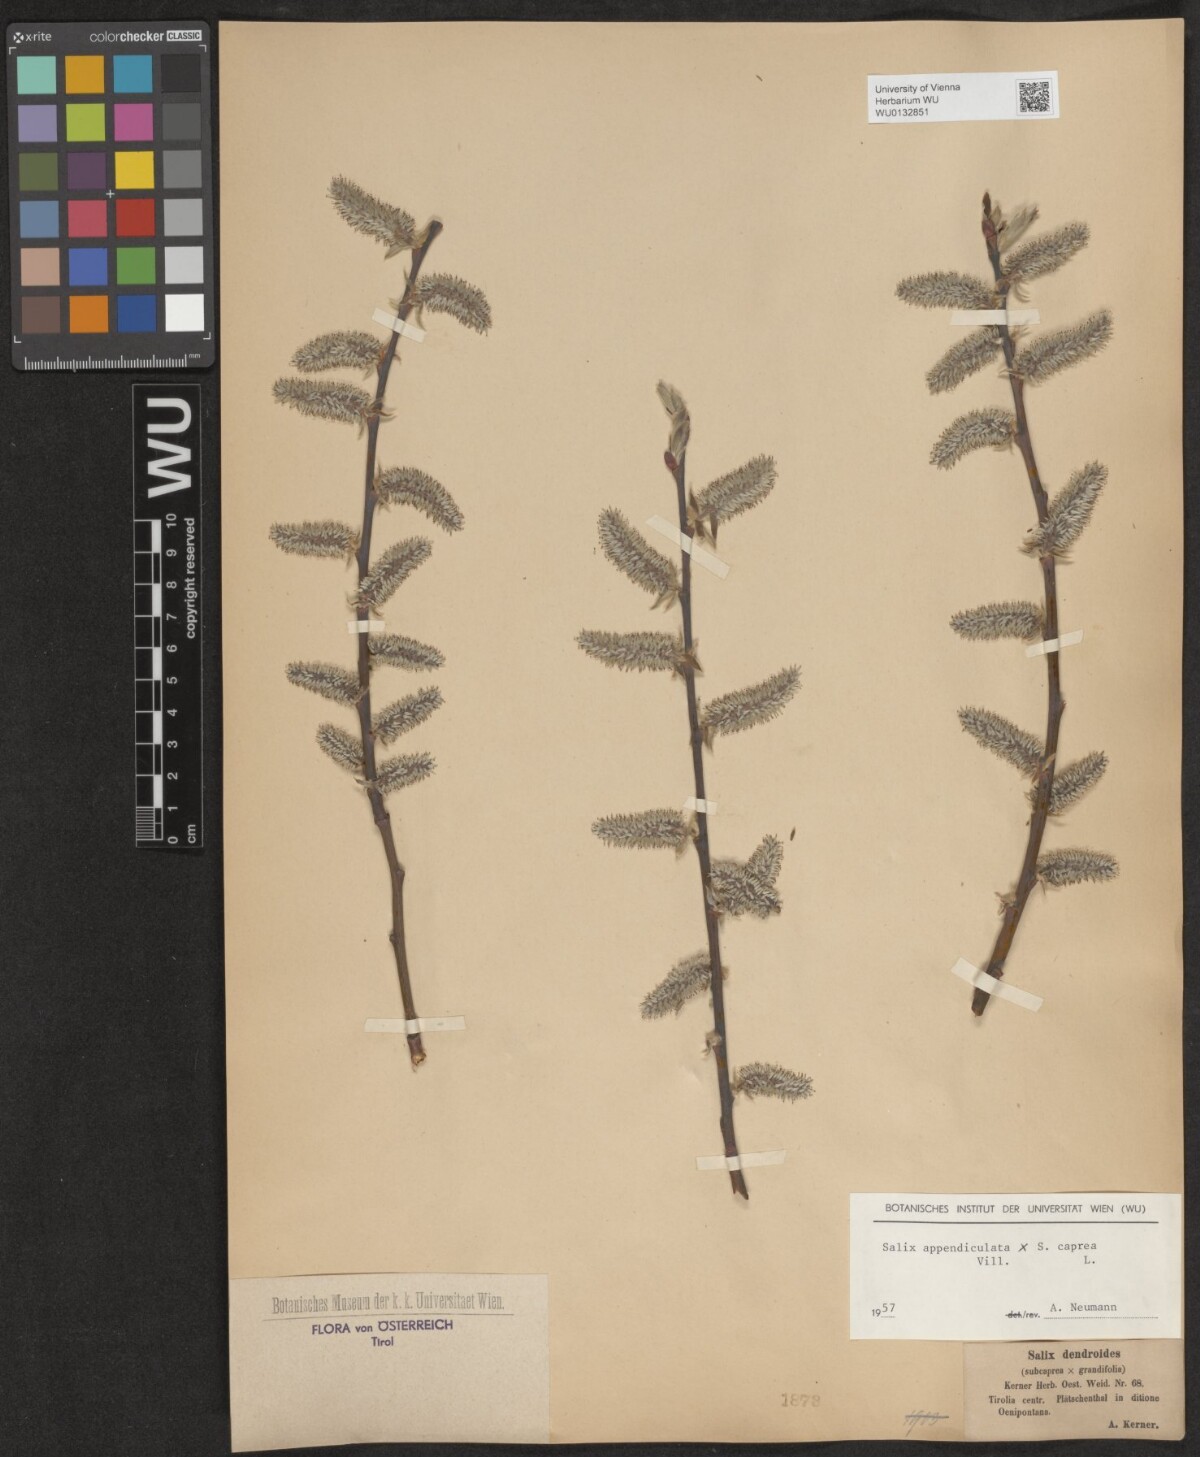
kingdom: Plantae
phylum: Tracheophyta
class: Magnoliopsida
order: Malpighiales
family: Salicaceae
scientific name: Salicaceae
